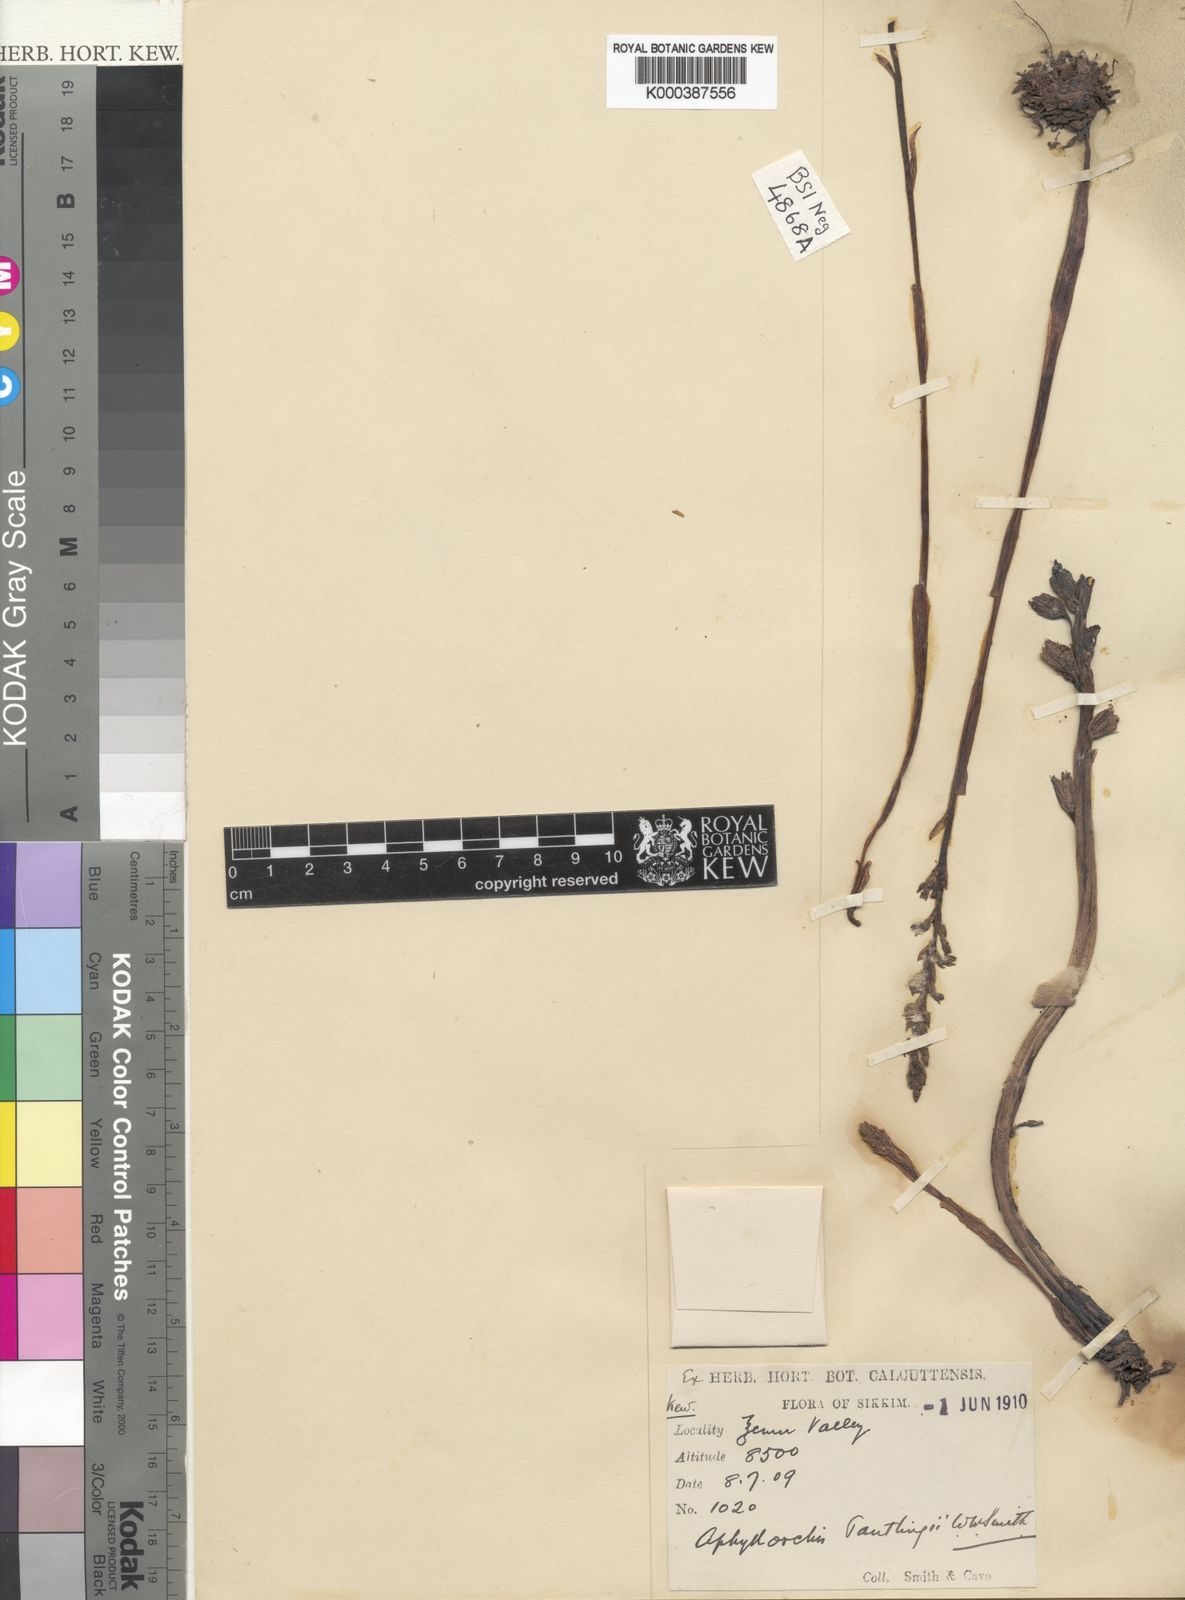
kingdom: Plantae
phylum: Tracheophyta
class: Liliopsida
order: Asparagales
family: Orchidaceae
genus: Neottia
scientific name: Neottia pantlingii
